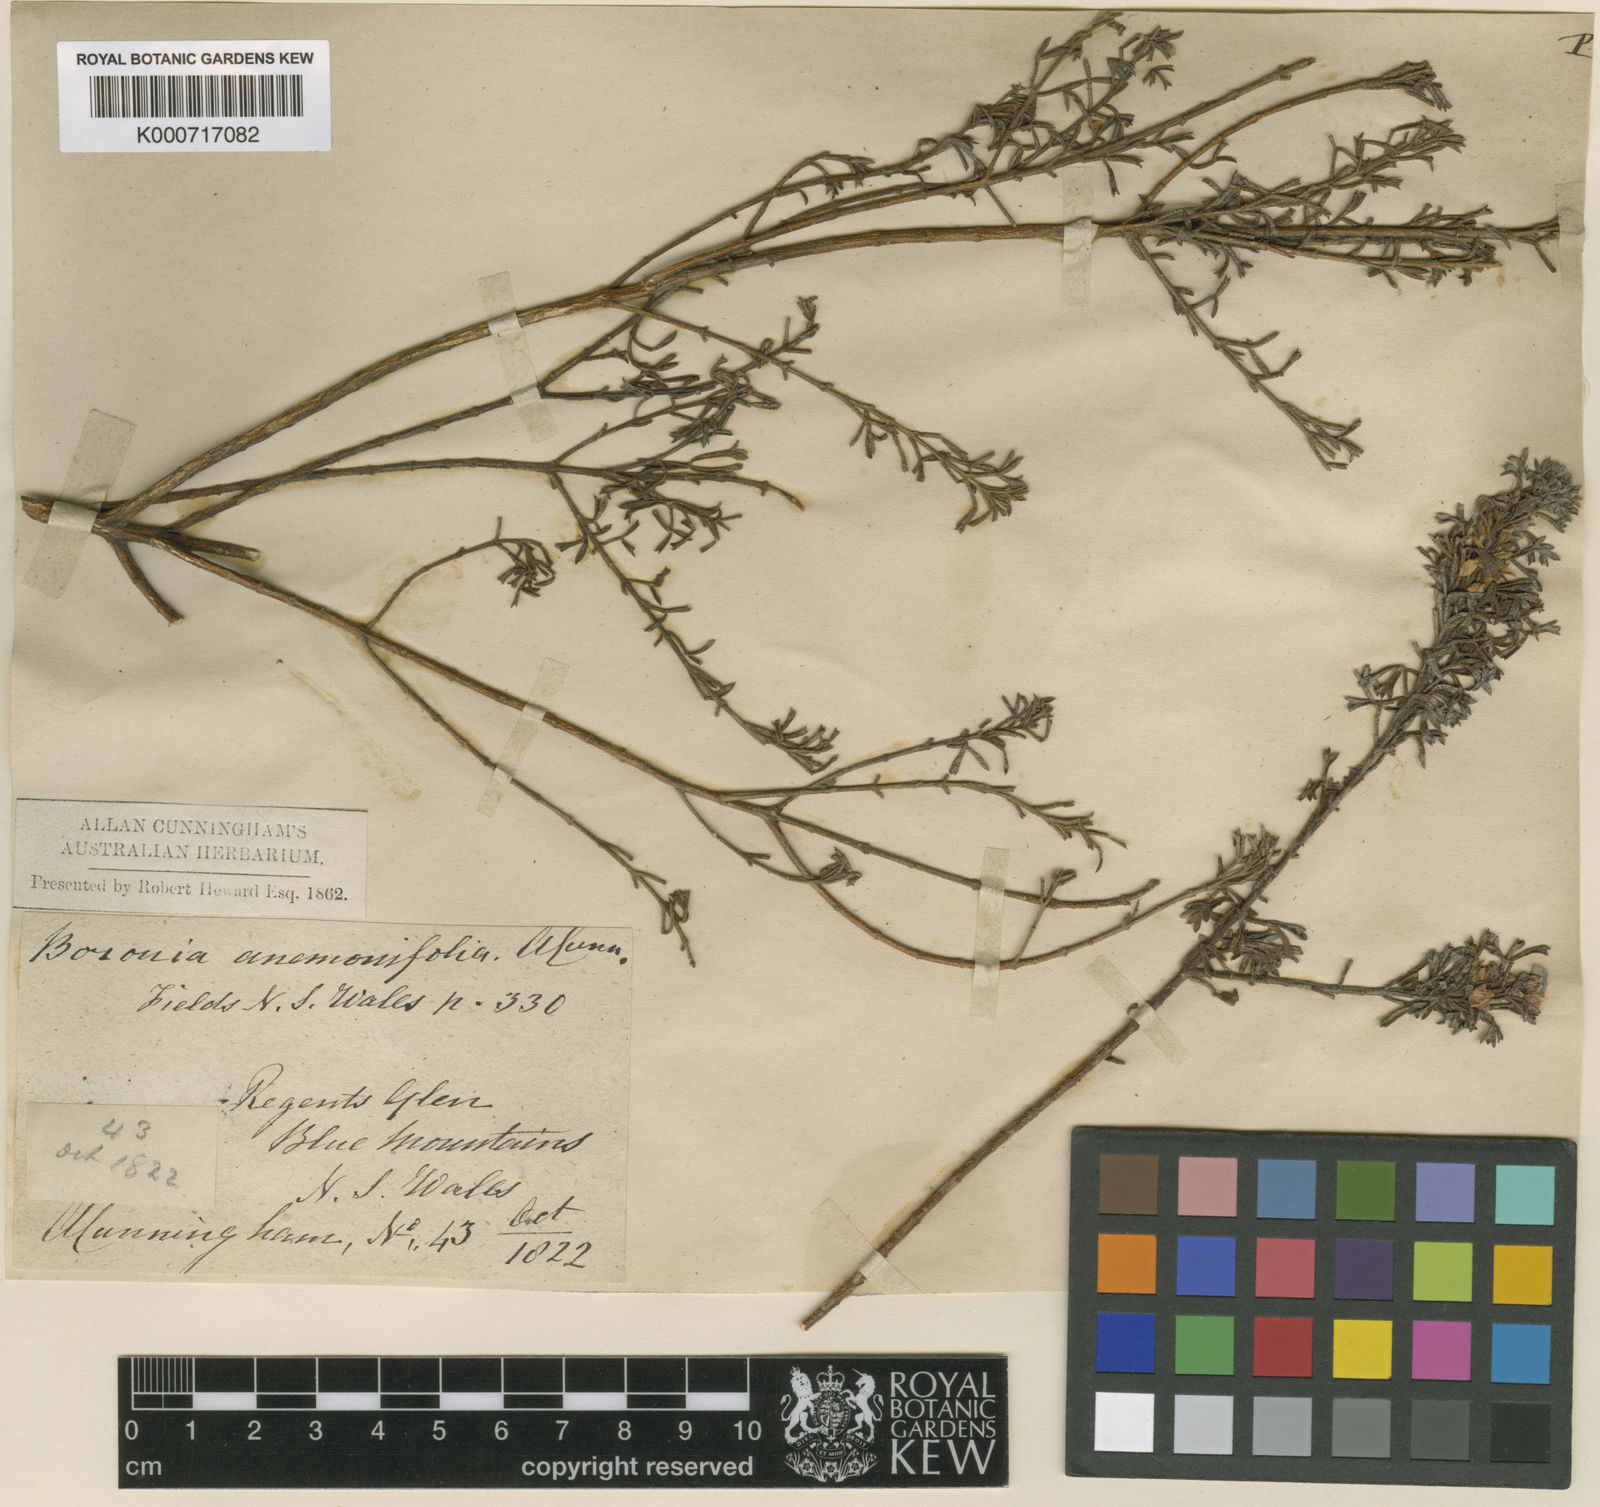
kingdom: Plantae
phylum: Tracheophyta
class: Magnoliopsida
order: Sapindales
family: Rutaceae
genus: Cyanothamnus
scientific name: Cyanothamnus anemonifolius
